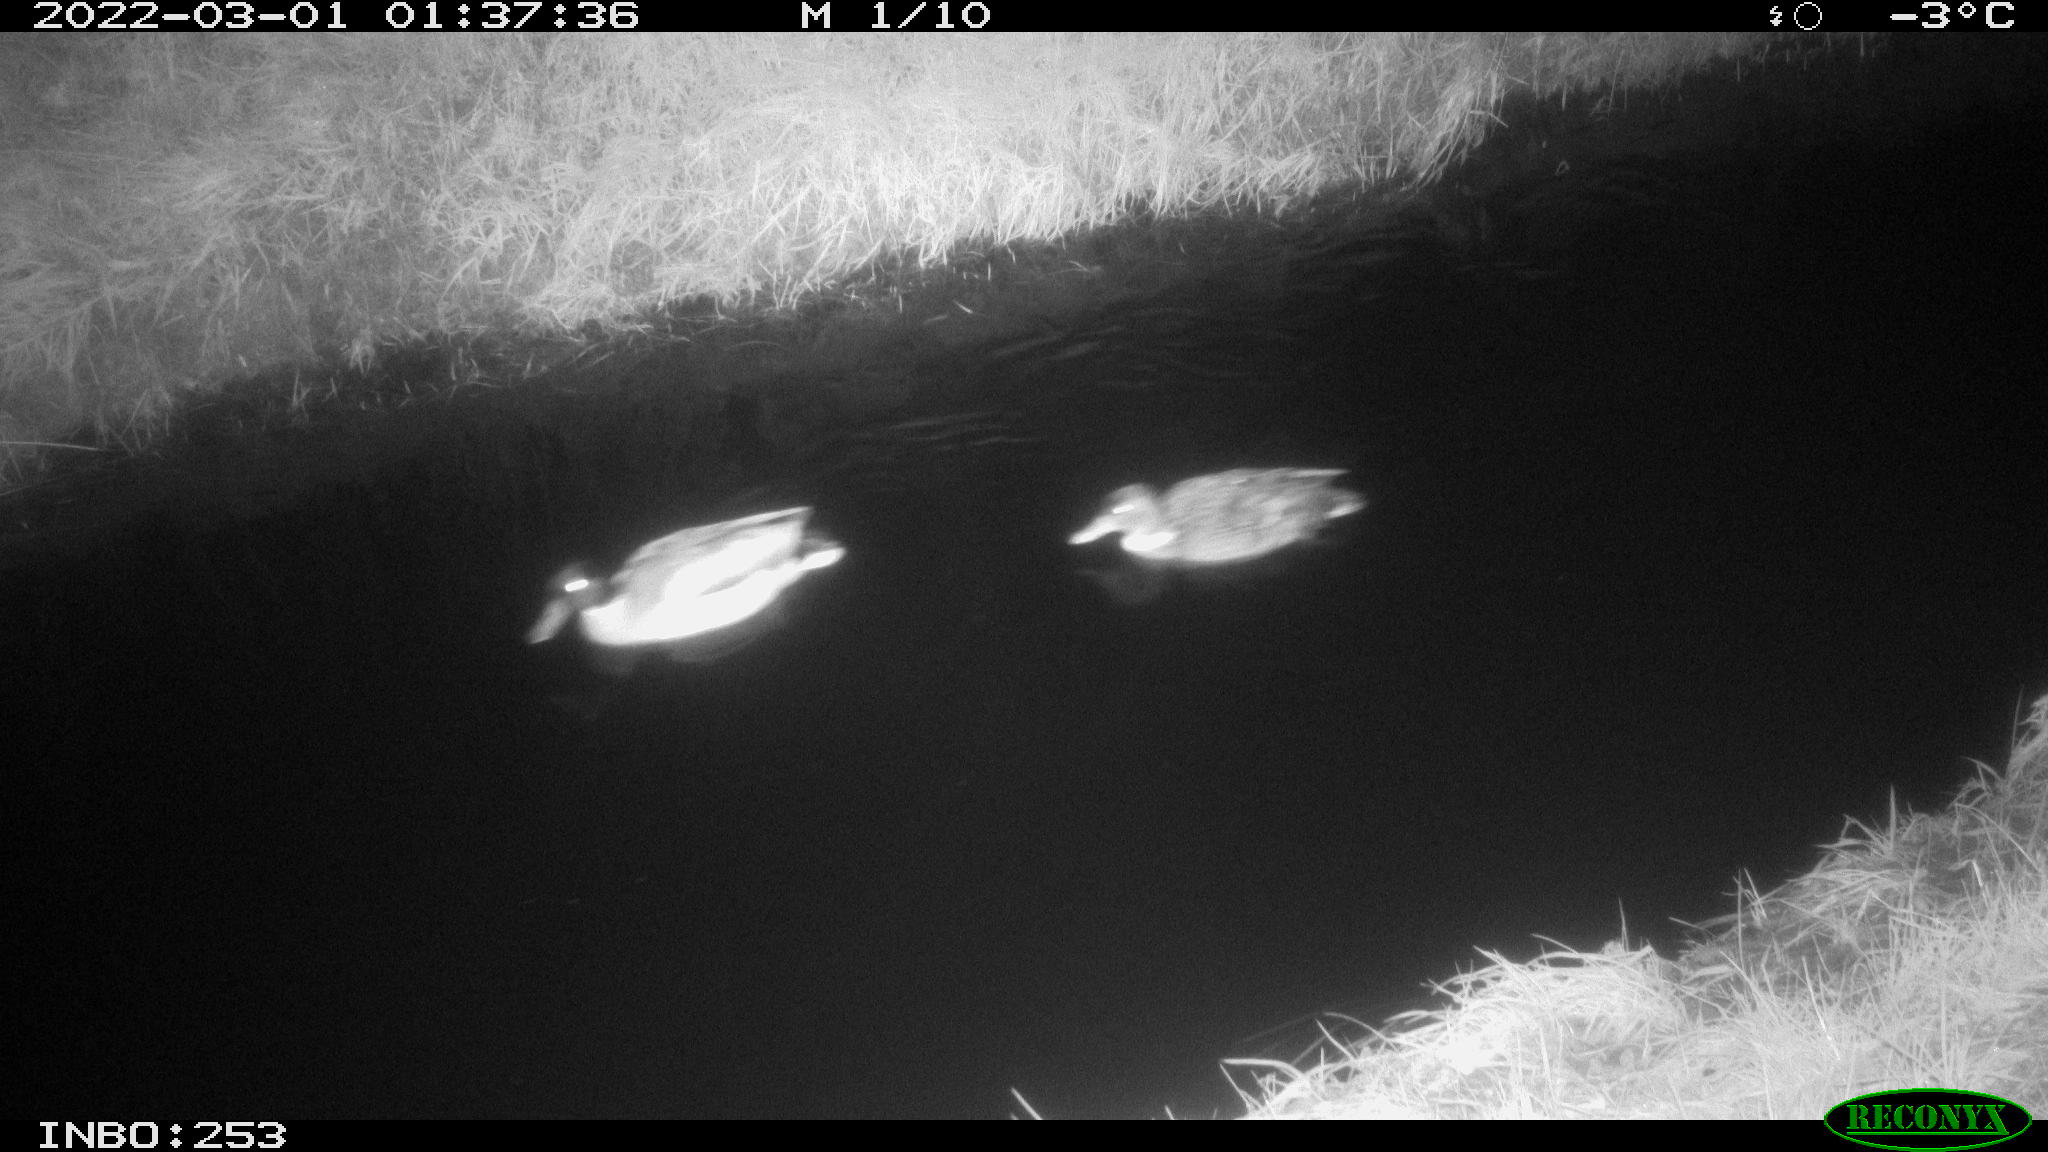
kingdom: Animalia
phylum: Chordata
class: Aves
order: Anseriformes
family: Anatidae
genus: Anas
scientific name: Anas platyrhynchos
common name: Mallard
